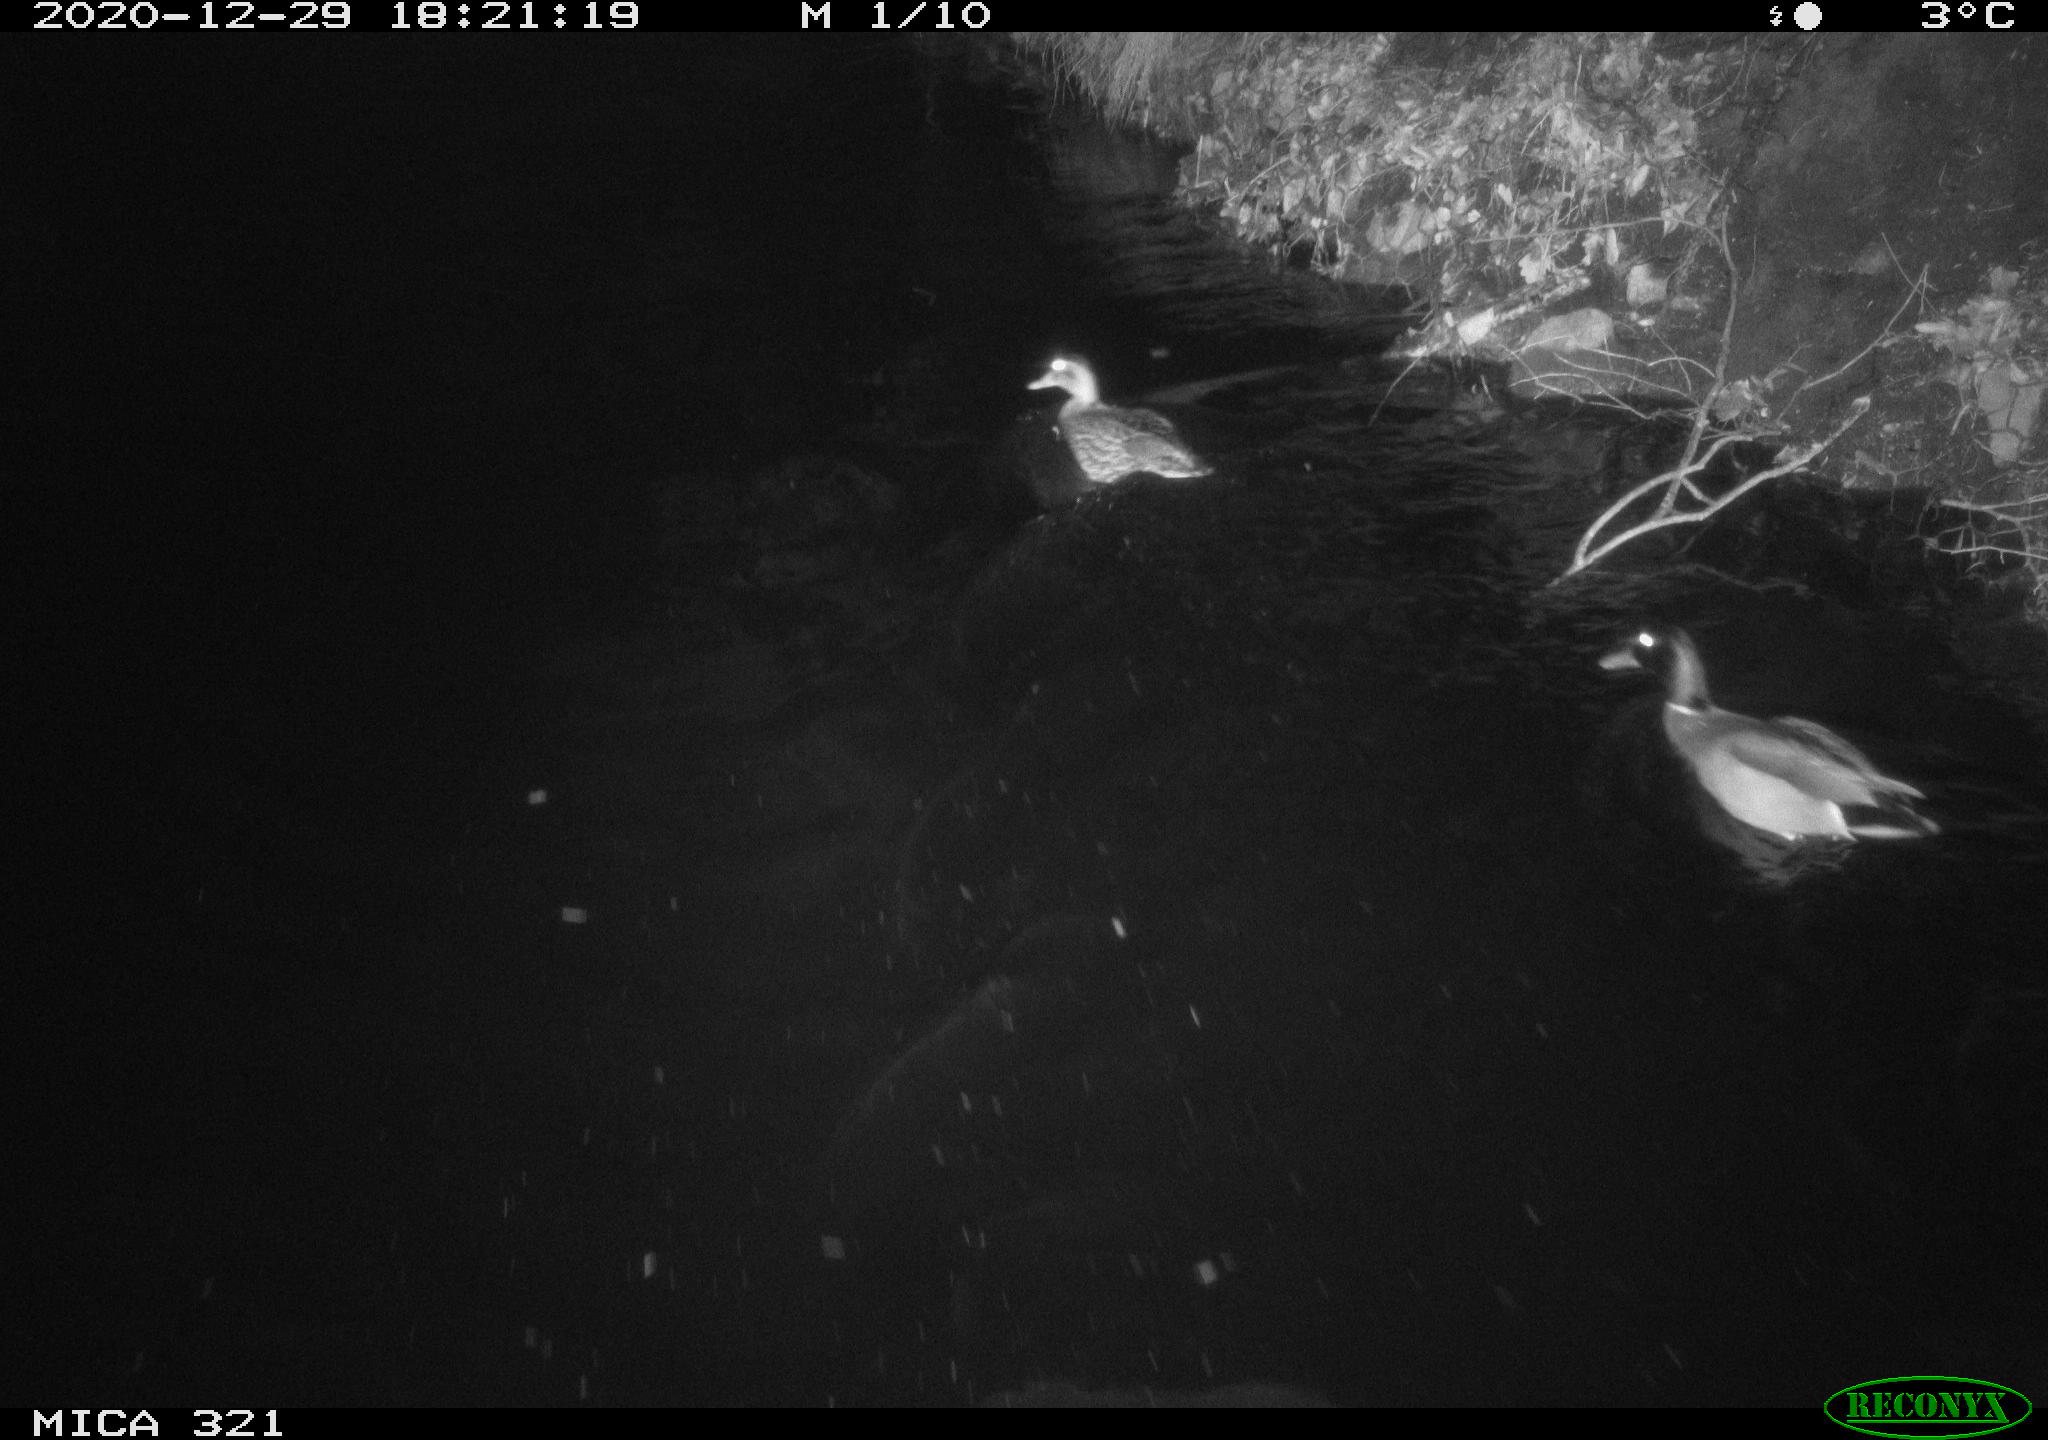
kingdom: Animalia
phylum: Chordata
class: Aves
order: Anseriformes
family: Anatidae
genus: Anas
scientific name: Anas platyrhynchos
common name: Mallard
